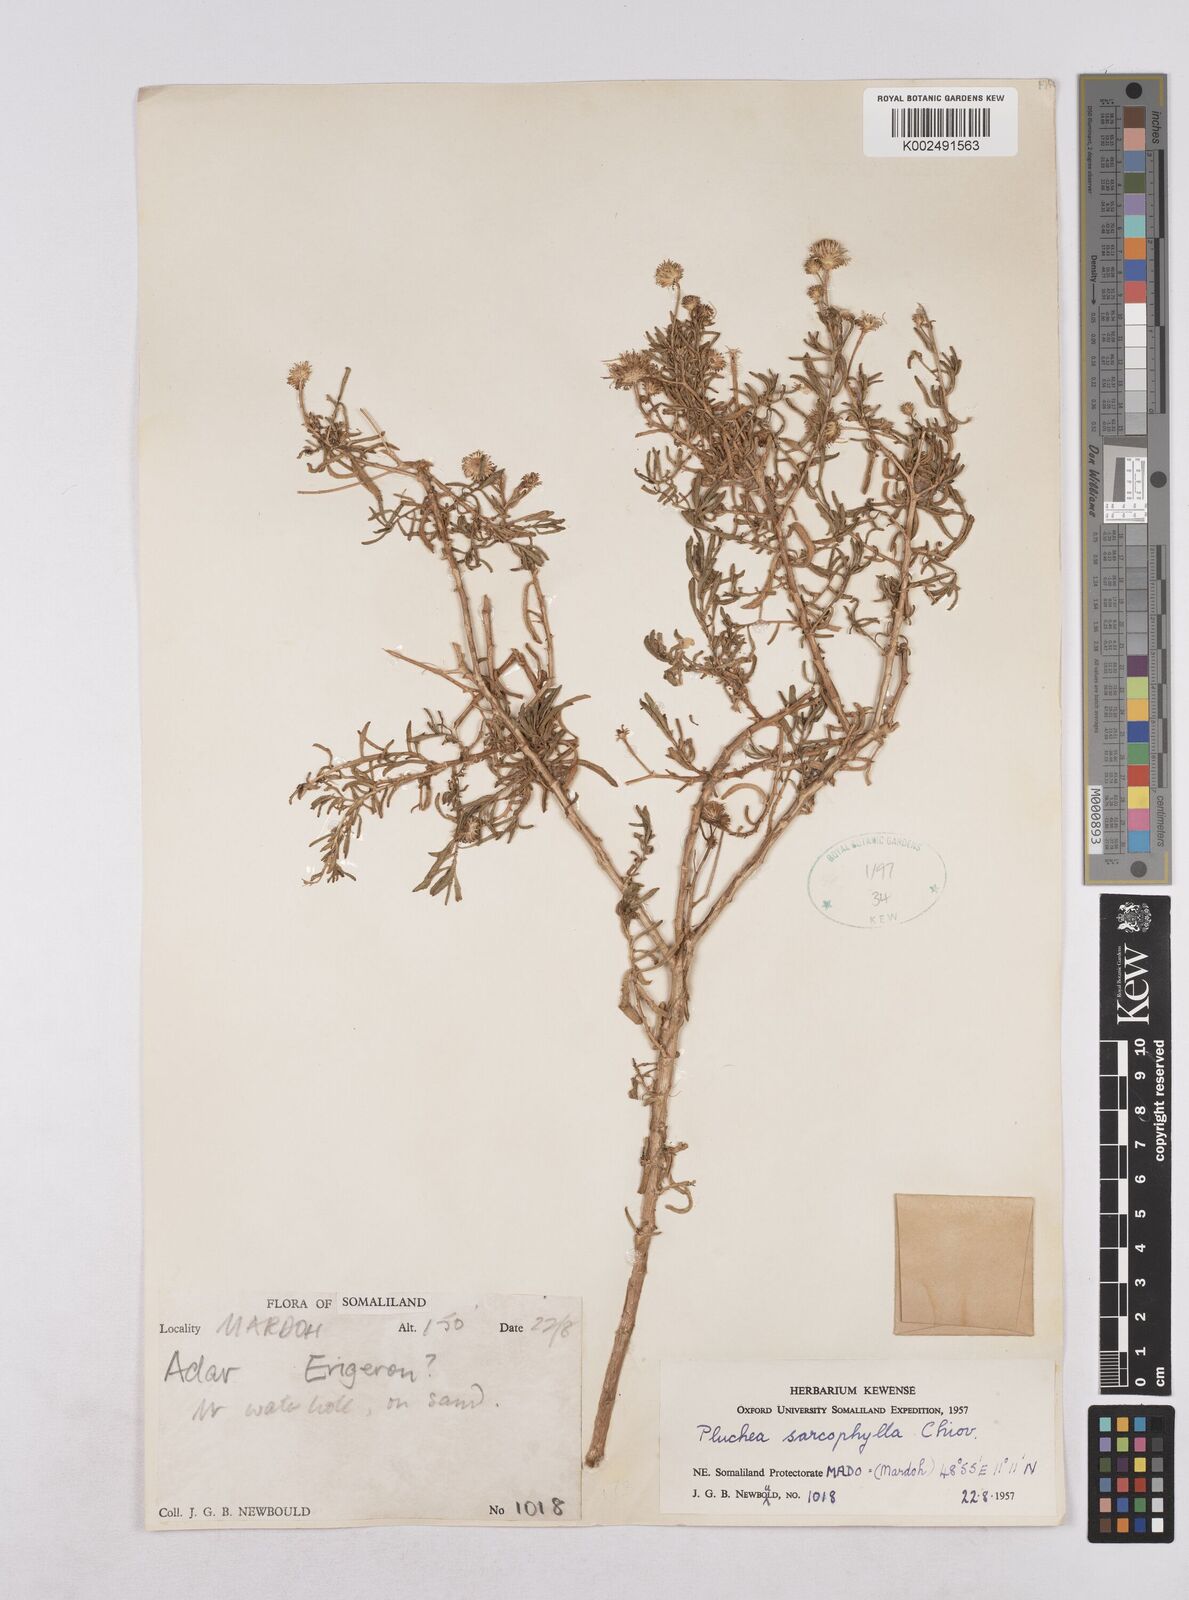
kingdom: Plantae
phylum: Tracheophyta
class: Magnoliopsida
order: Asterales
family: Asteraceae
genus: Pluchea
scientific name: Pluchea sarcophylla
